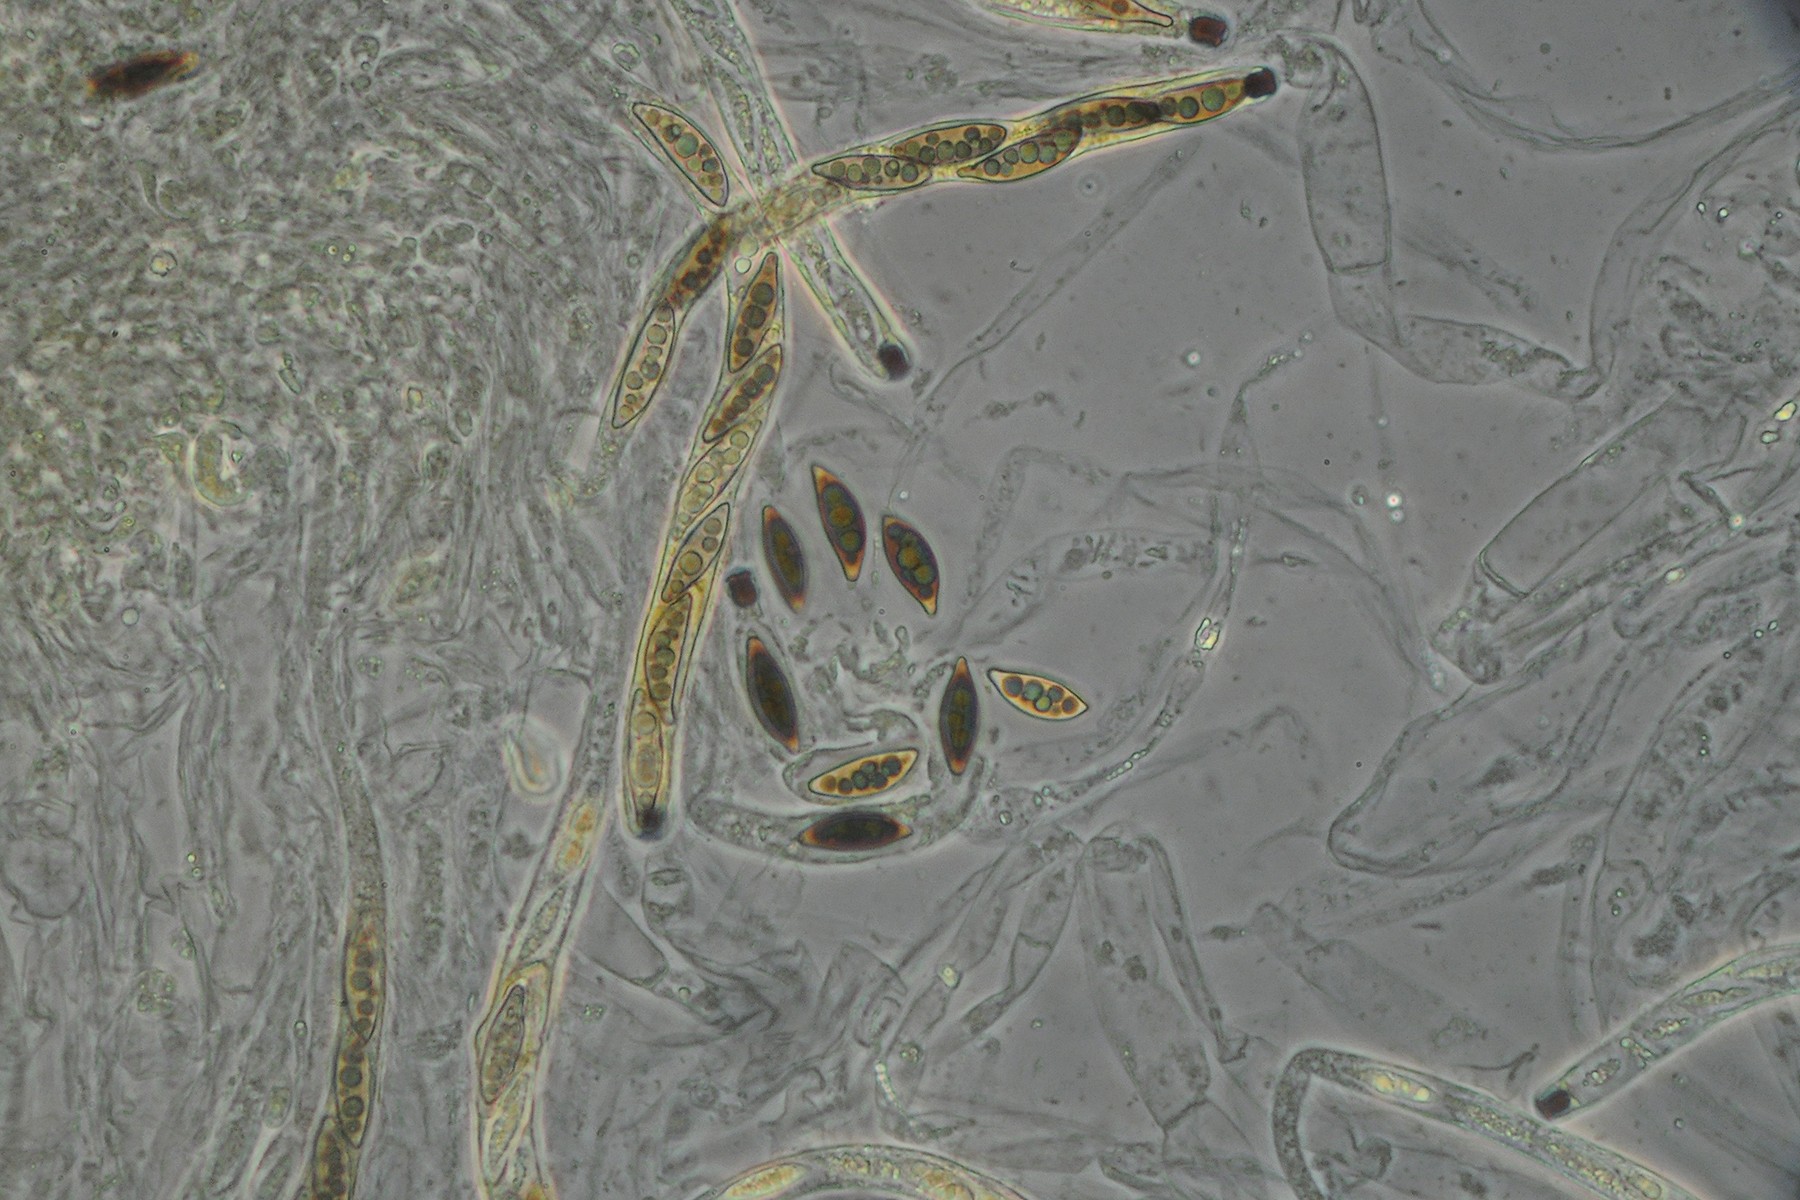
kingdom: Fungi
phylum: Ascomycota
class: Sordariomycetes
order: Amphisphaeriales
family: Amphisphaeriaceae
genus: Amphisphaerella
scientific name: Amphisphaerella mycophila
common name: ædelgran-kulkaviar
